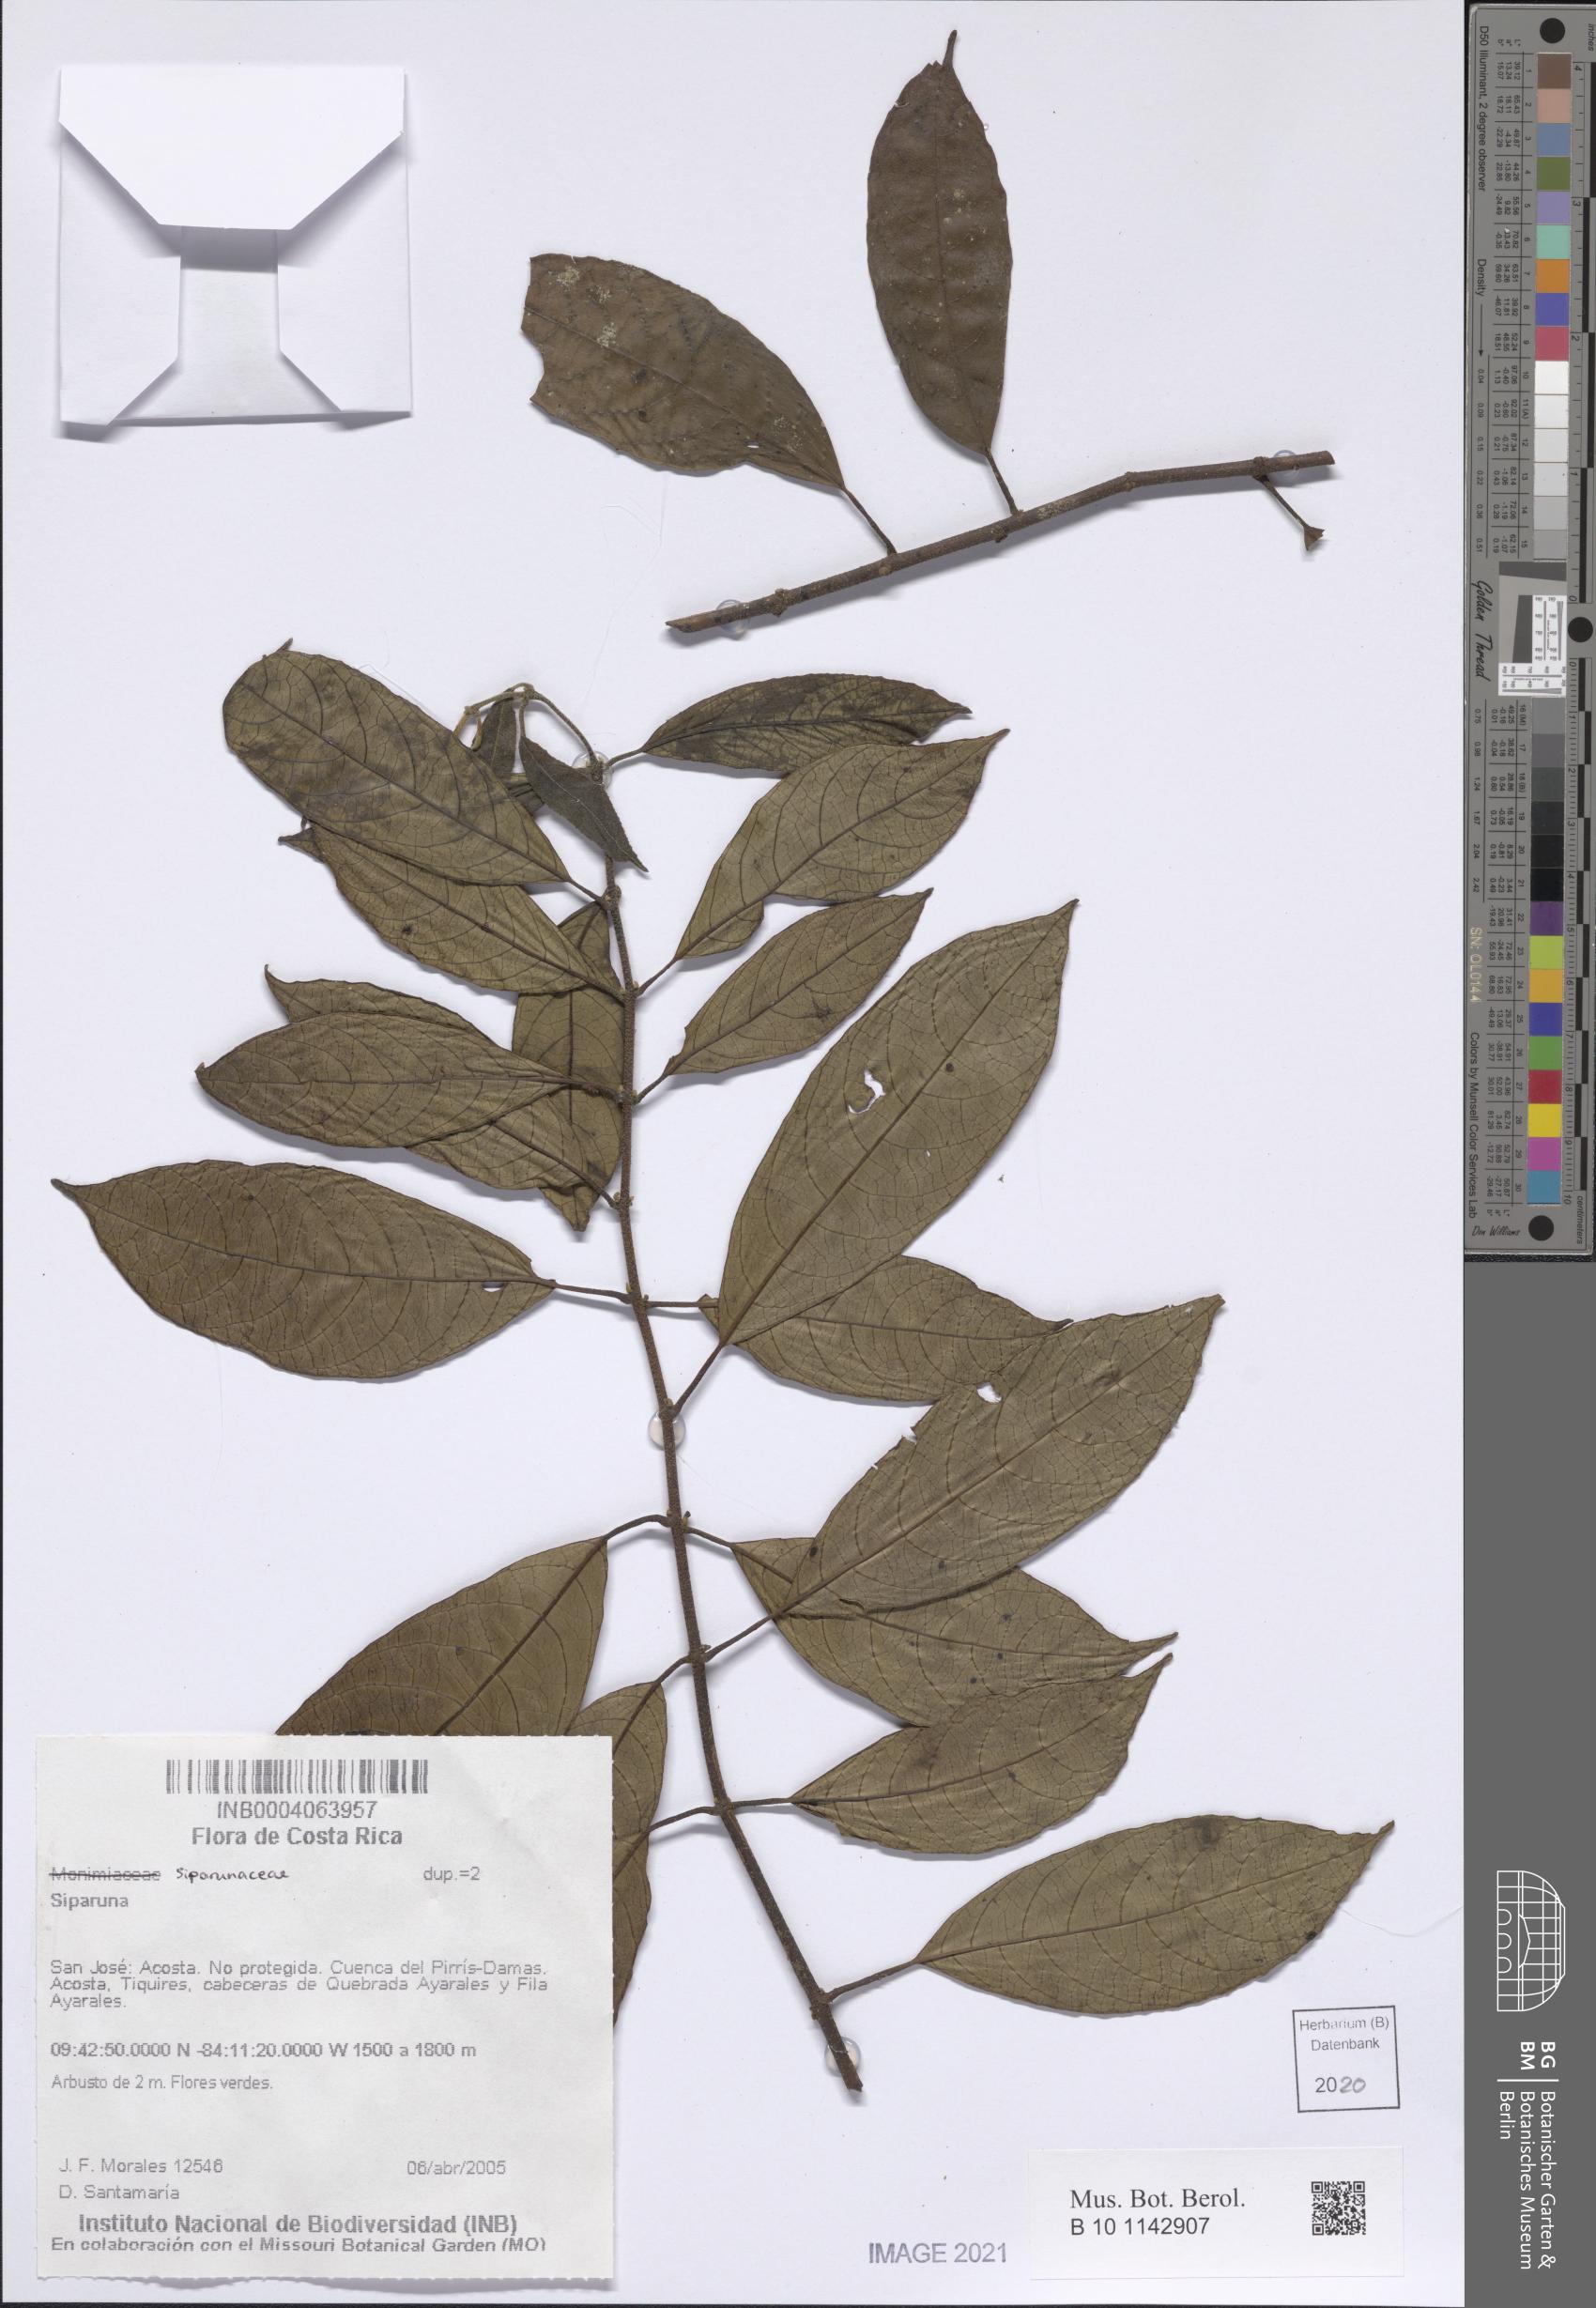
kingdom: Plantae
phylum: Tracheophyta
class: Magnoliopsida
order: Laurales
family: Siparunaceae
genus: Siparuna
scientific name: Siparuna
